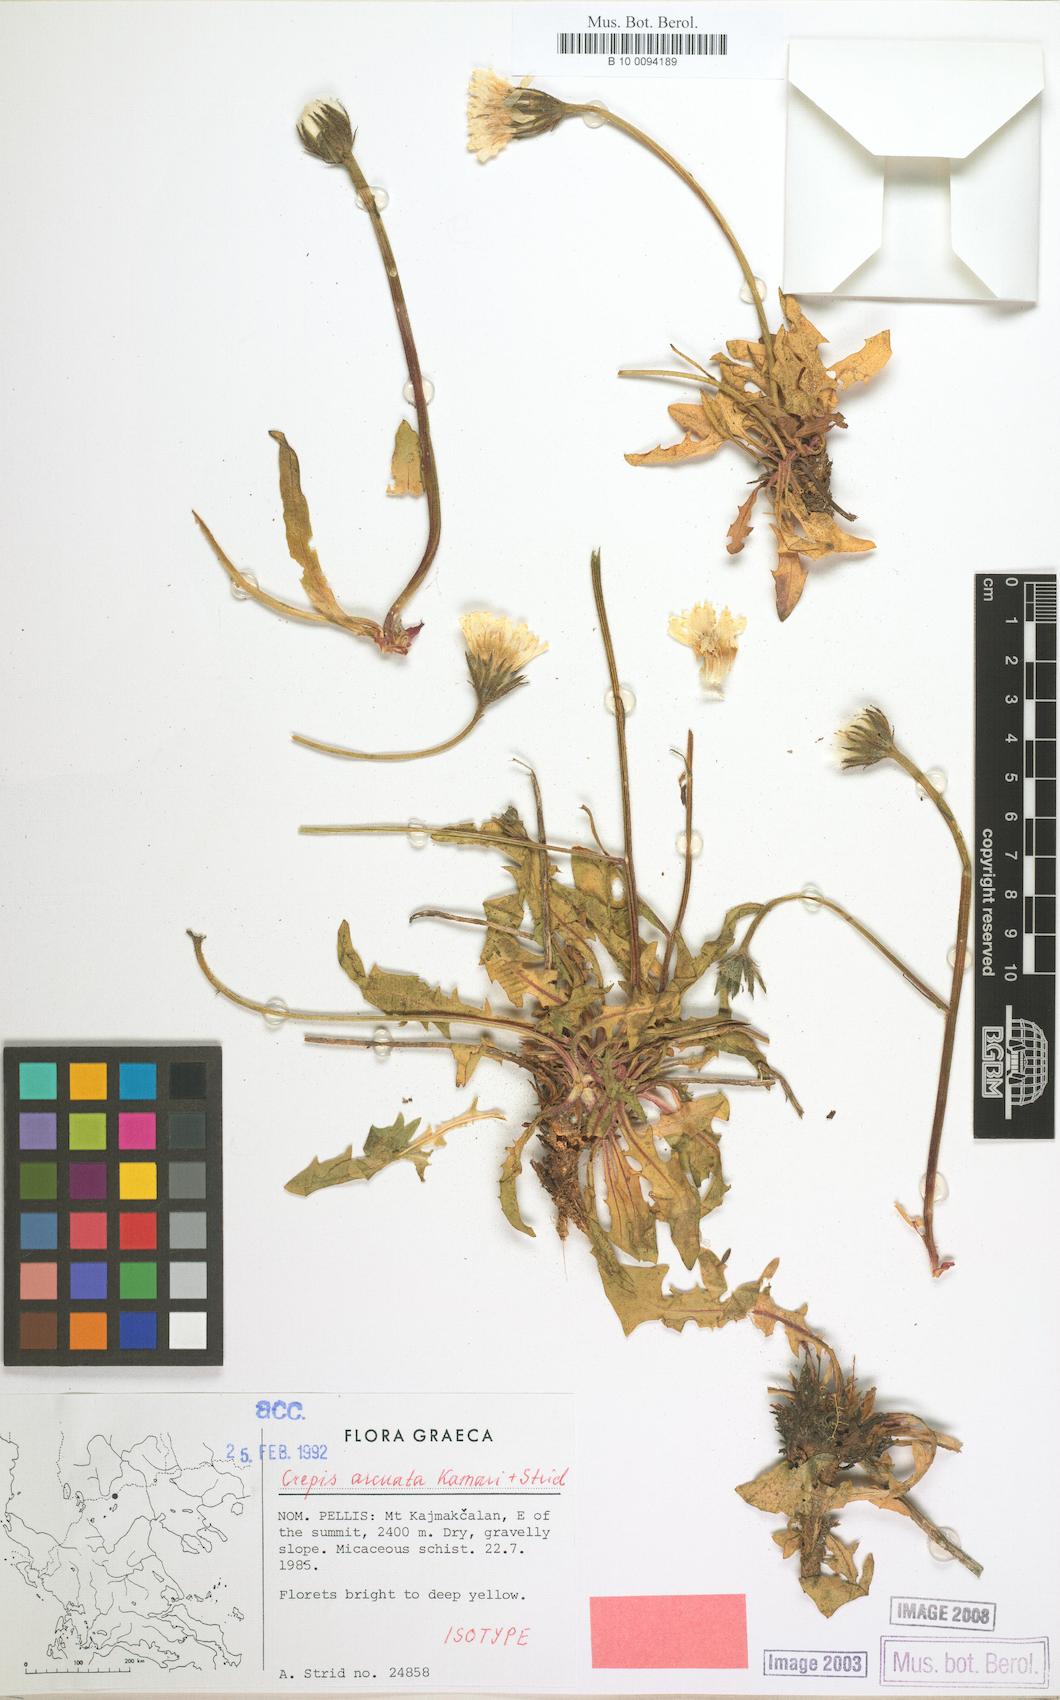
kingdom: Plantae
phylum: Tracheophyta
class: Magnoliopsida
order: Asterales
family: Asteraceae
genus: Crepis
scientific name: Crepis arcuata
